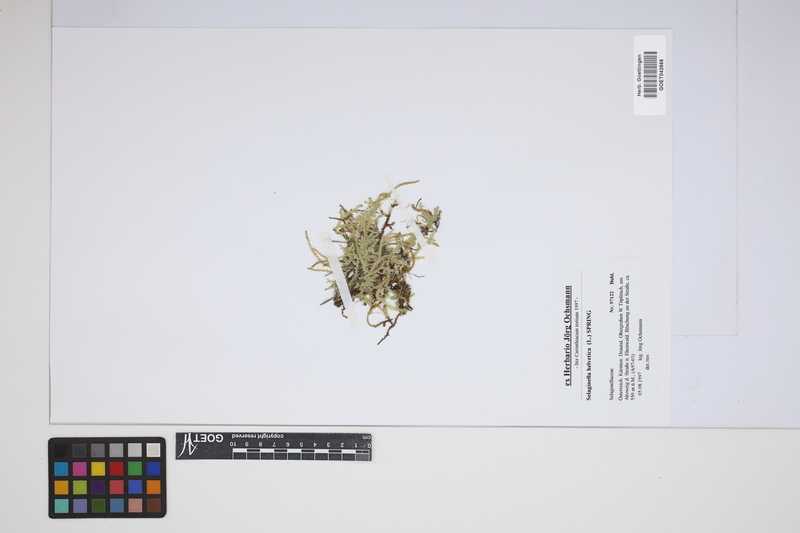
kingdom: Plantae
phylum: Tracheophyta
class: Lycopodiopsida
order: Selaginellales
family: Selaginellaceae
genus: Selaginella
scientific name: Selaginella helvetica
